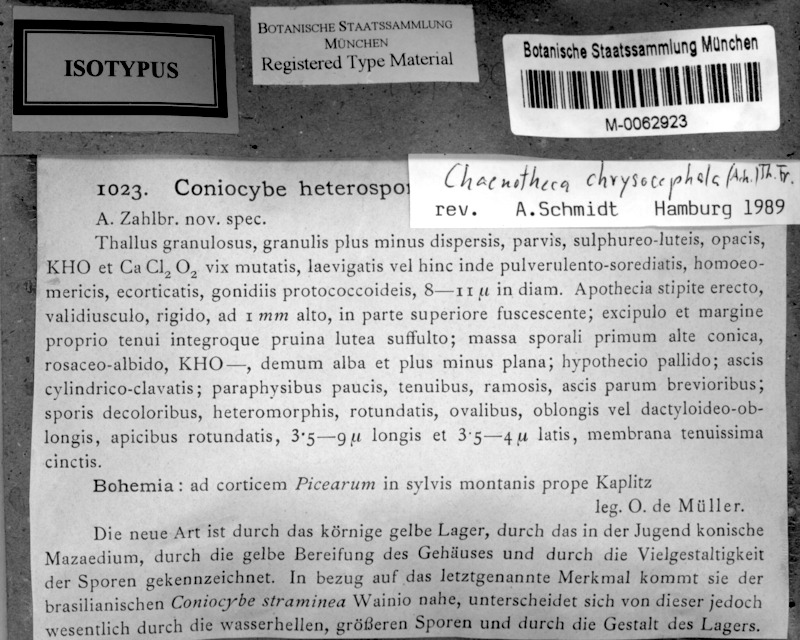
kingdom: Fungi
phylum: Ascomycota
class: Coniocybomycetes
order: Coniocybales
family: Coniocybaceae
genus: Chaenotheca
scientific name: Chaenotheca chrysocephala
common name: Canary stubble lichen
